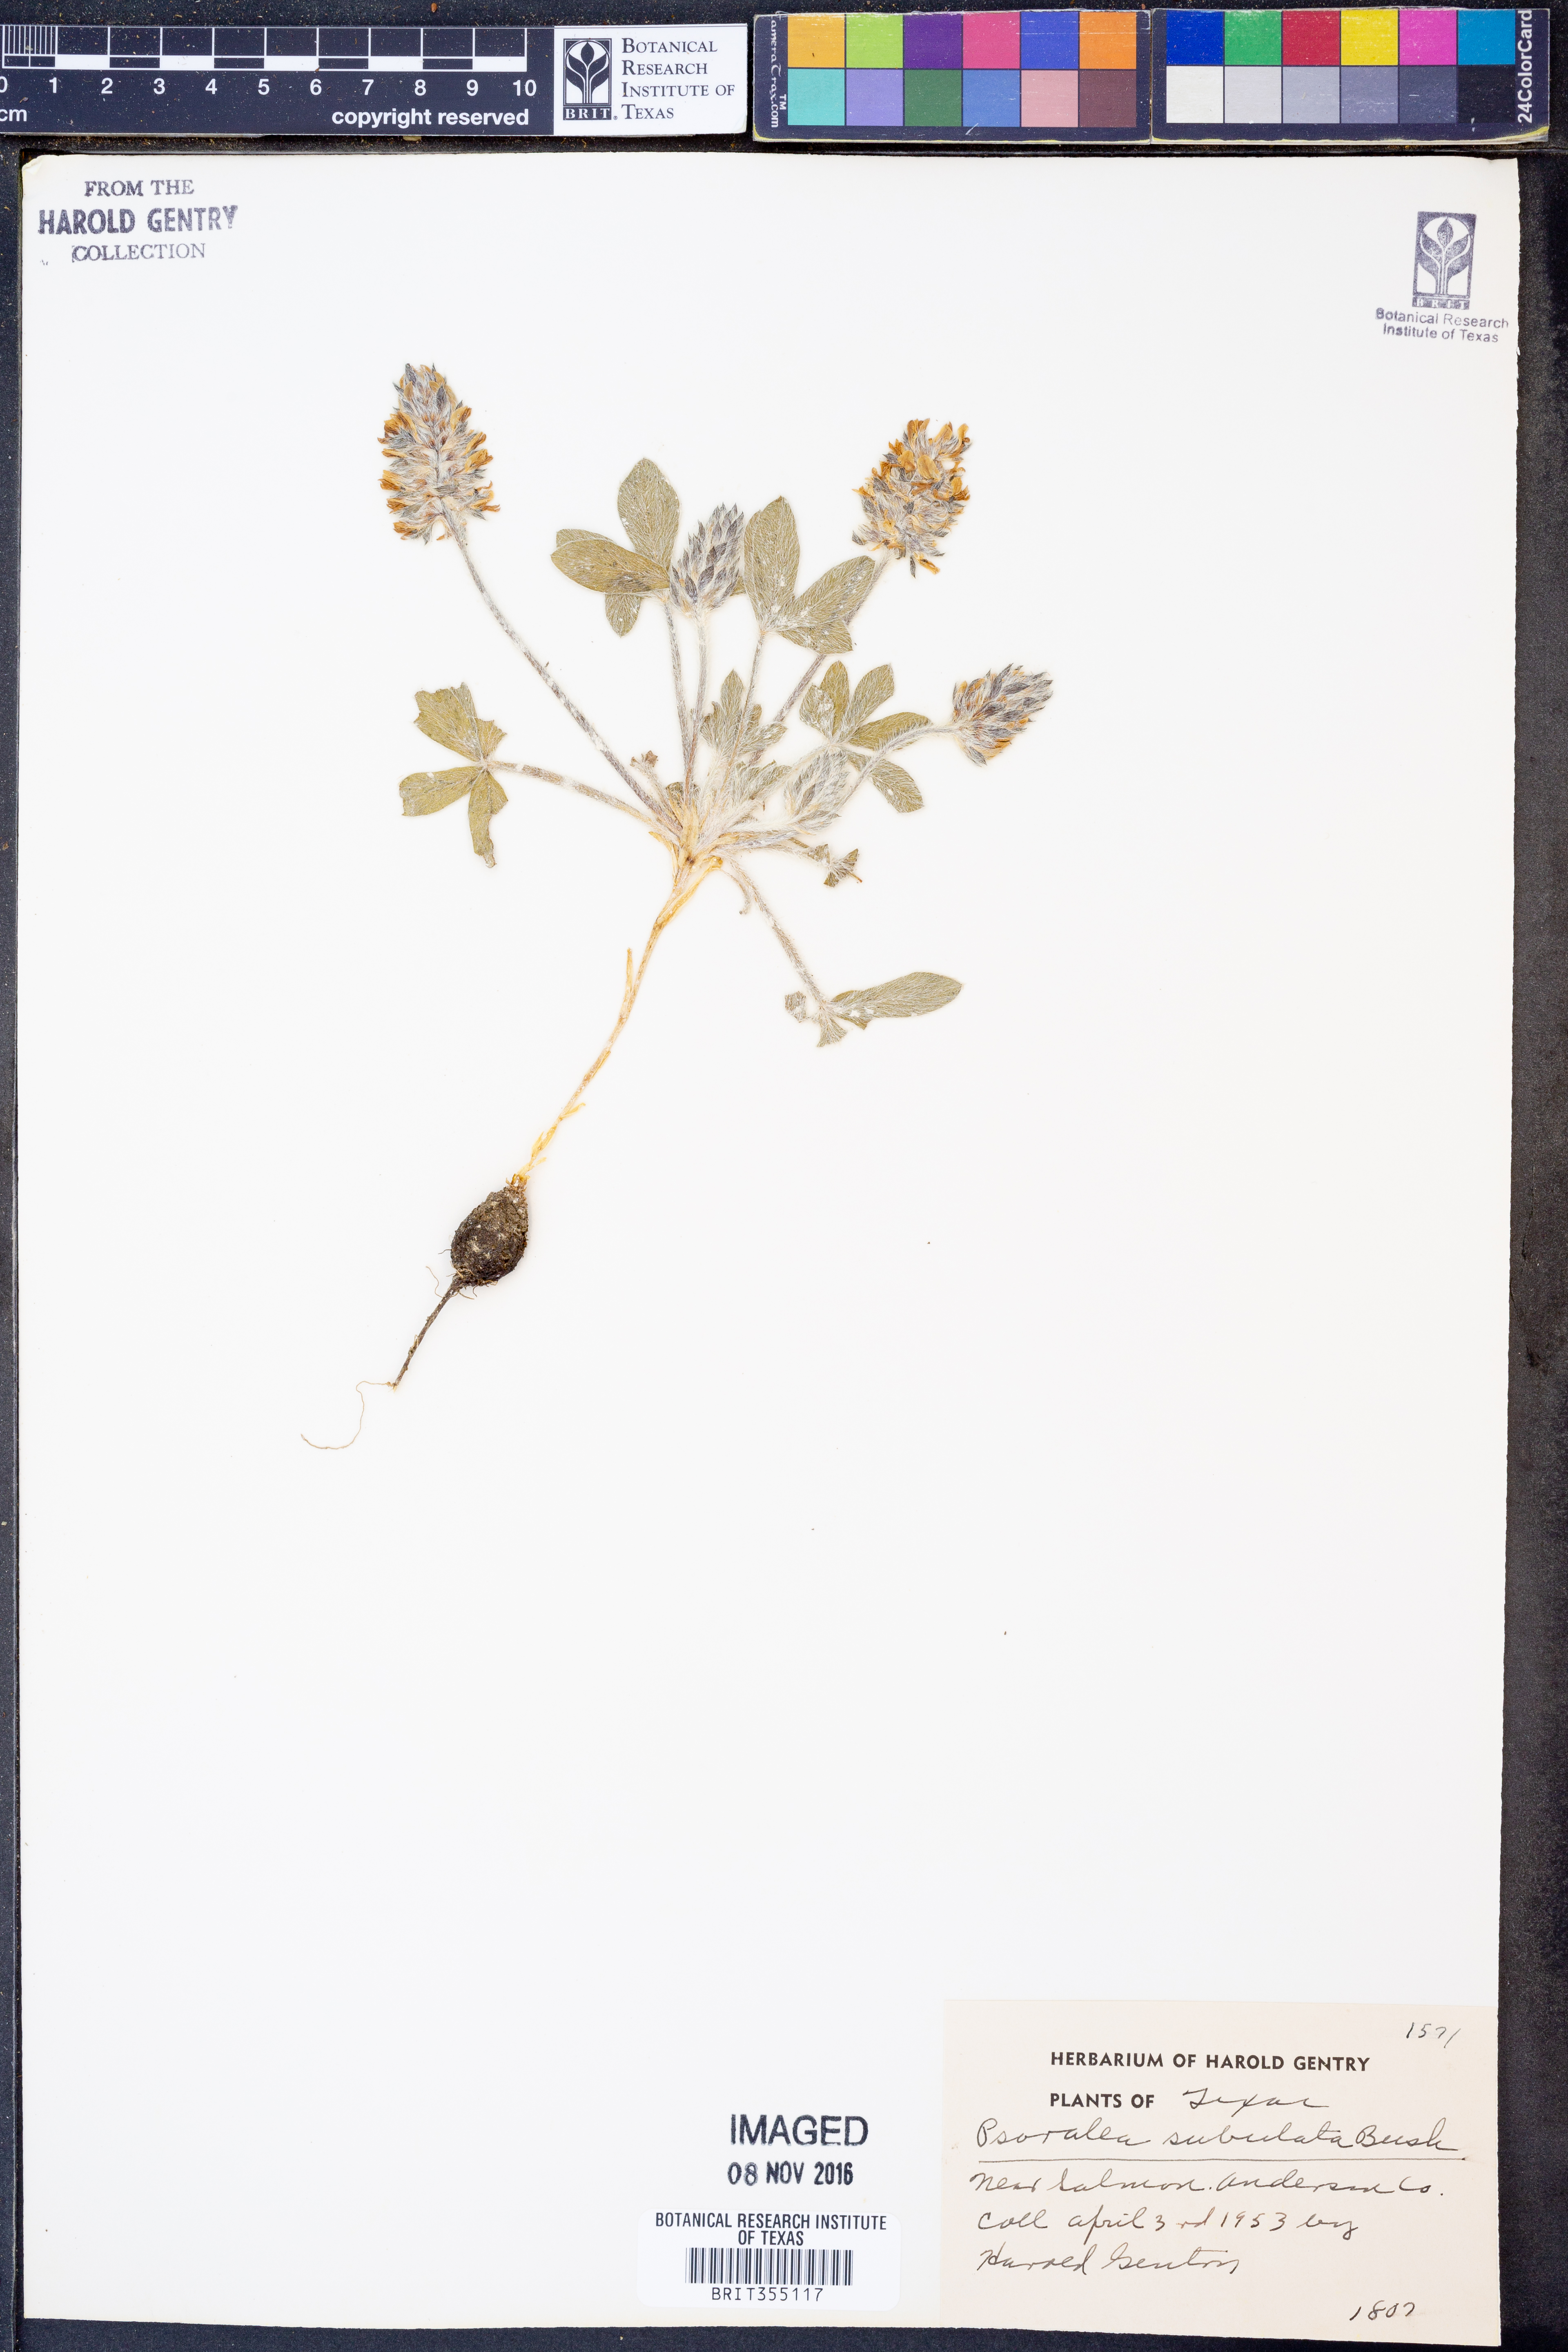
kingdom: Plantae
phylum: Tracheophyta
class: Magnoliopsida
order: Fabales
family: Fabaceae
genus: Pediomelum
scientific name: Pediomelum hypogaeum
